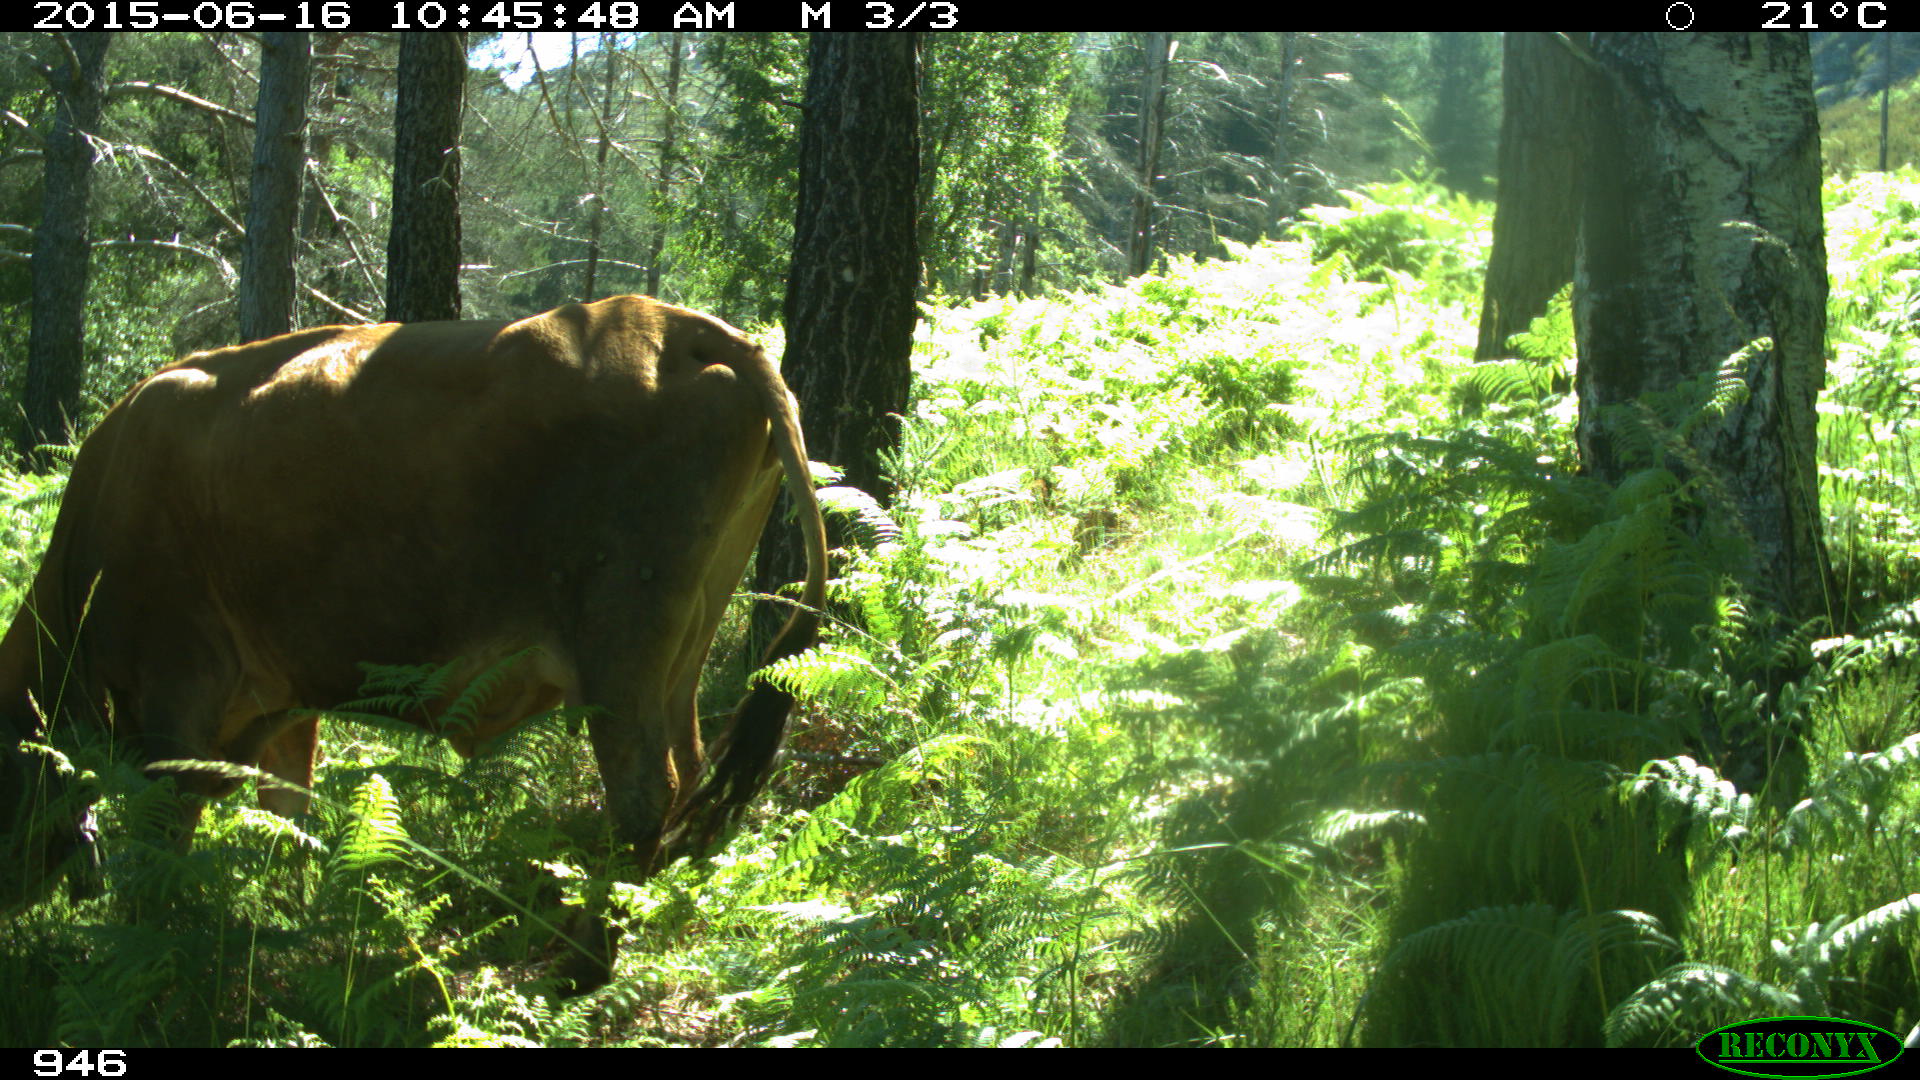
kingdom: Animalia
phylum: Chordata
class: Mammalia
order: Artiodactyla
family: Bovidae
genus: Bos
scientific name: Bos taurus
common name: Domesticated cattle
